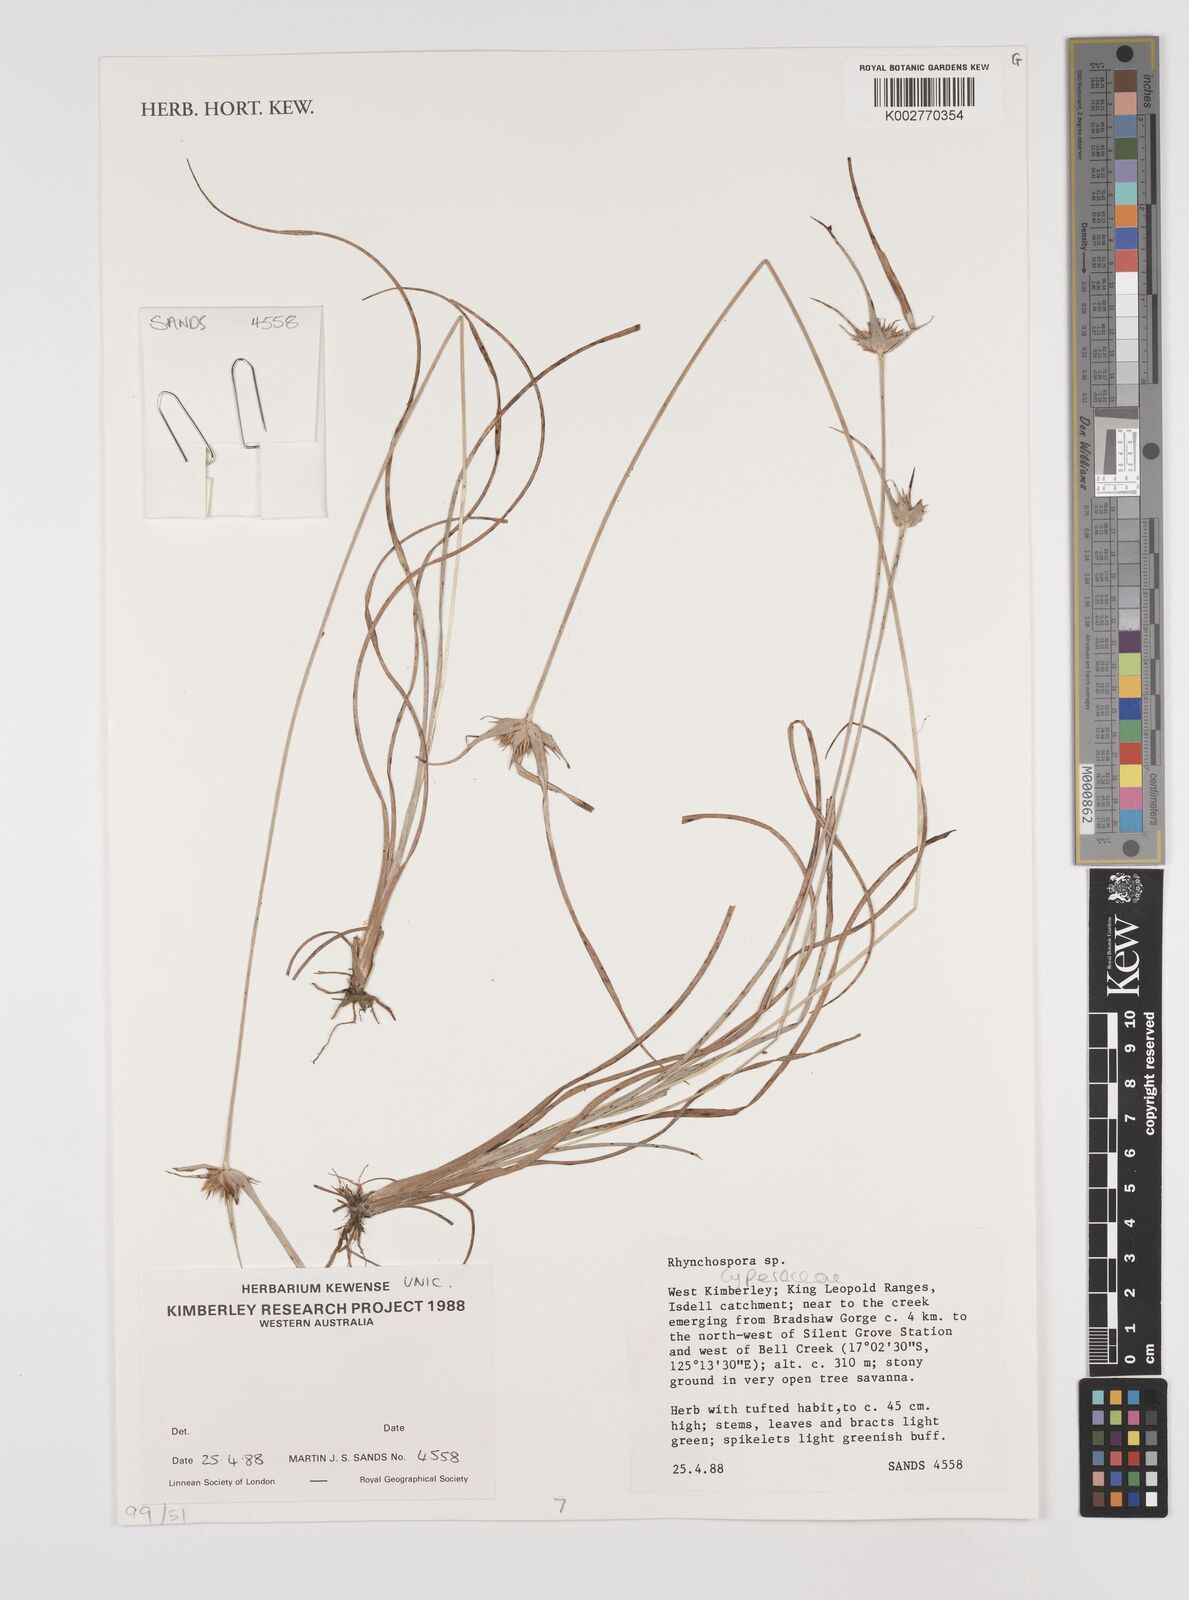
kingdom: Plantae
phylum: Tracheophyta
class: Liliopsida
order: Poales
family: Cyperaceae
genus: Rhynchospora
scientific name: Rhynchospora rubra
